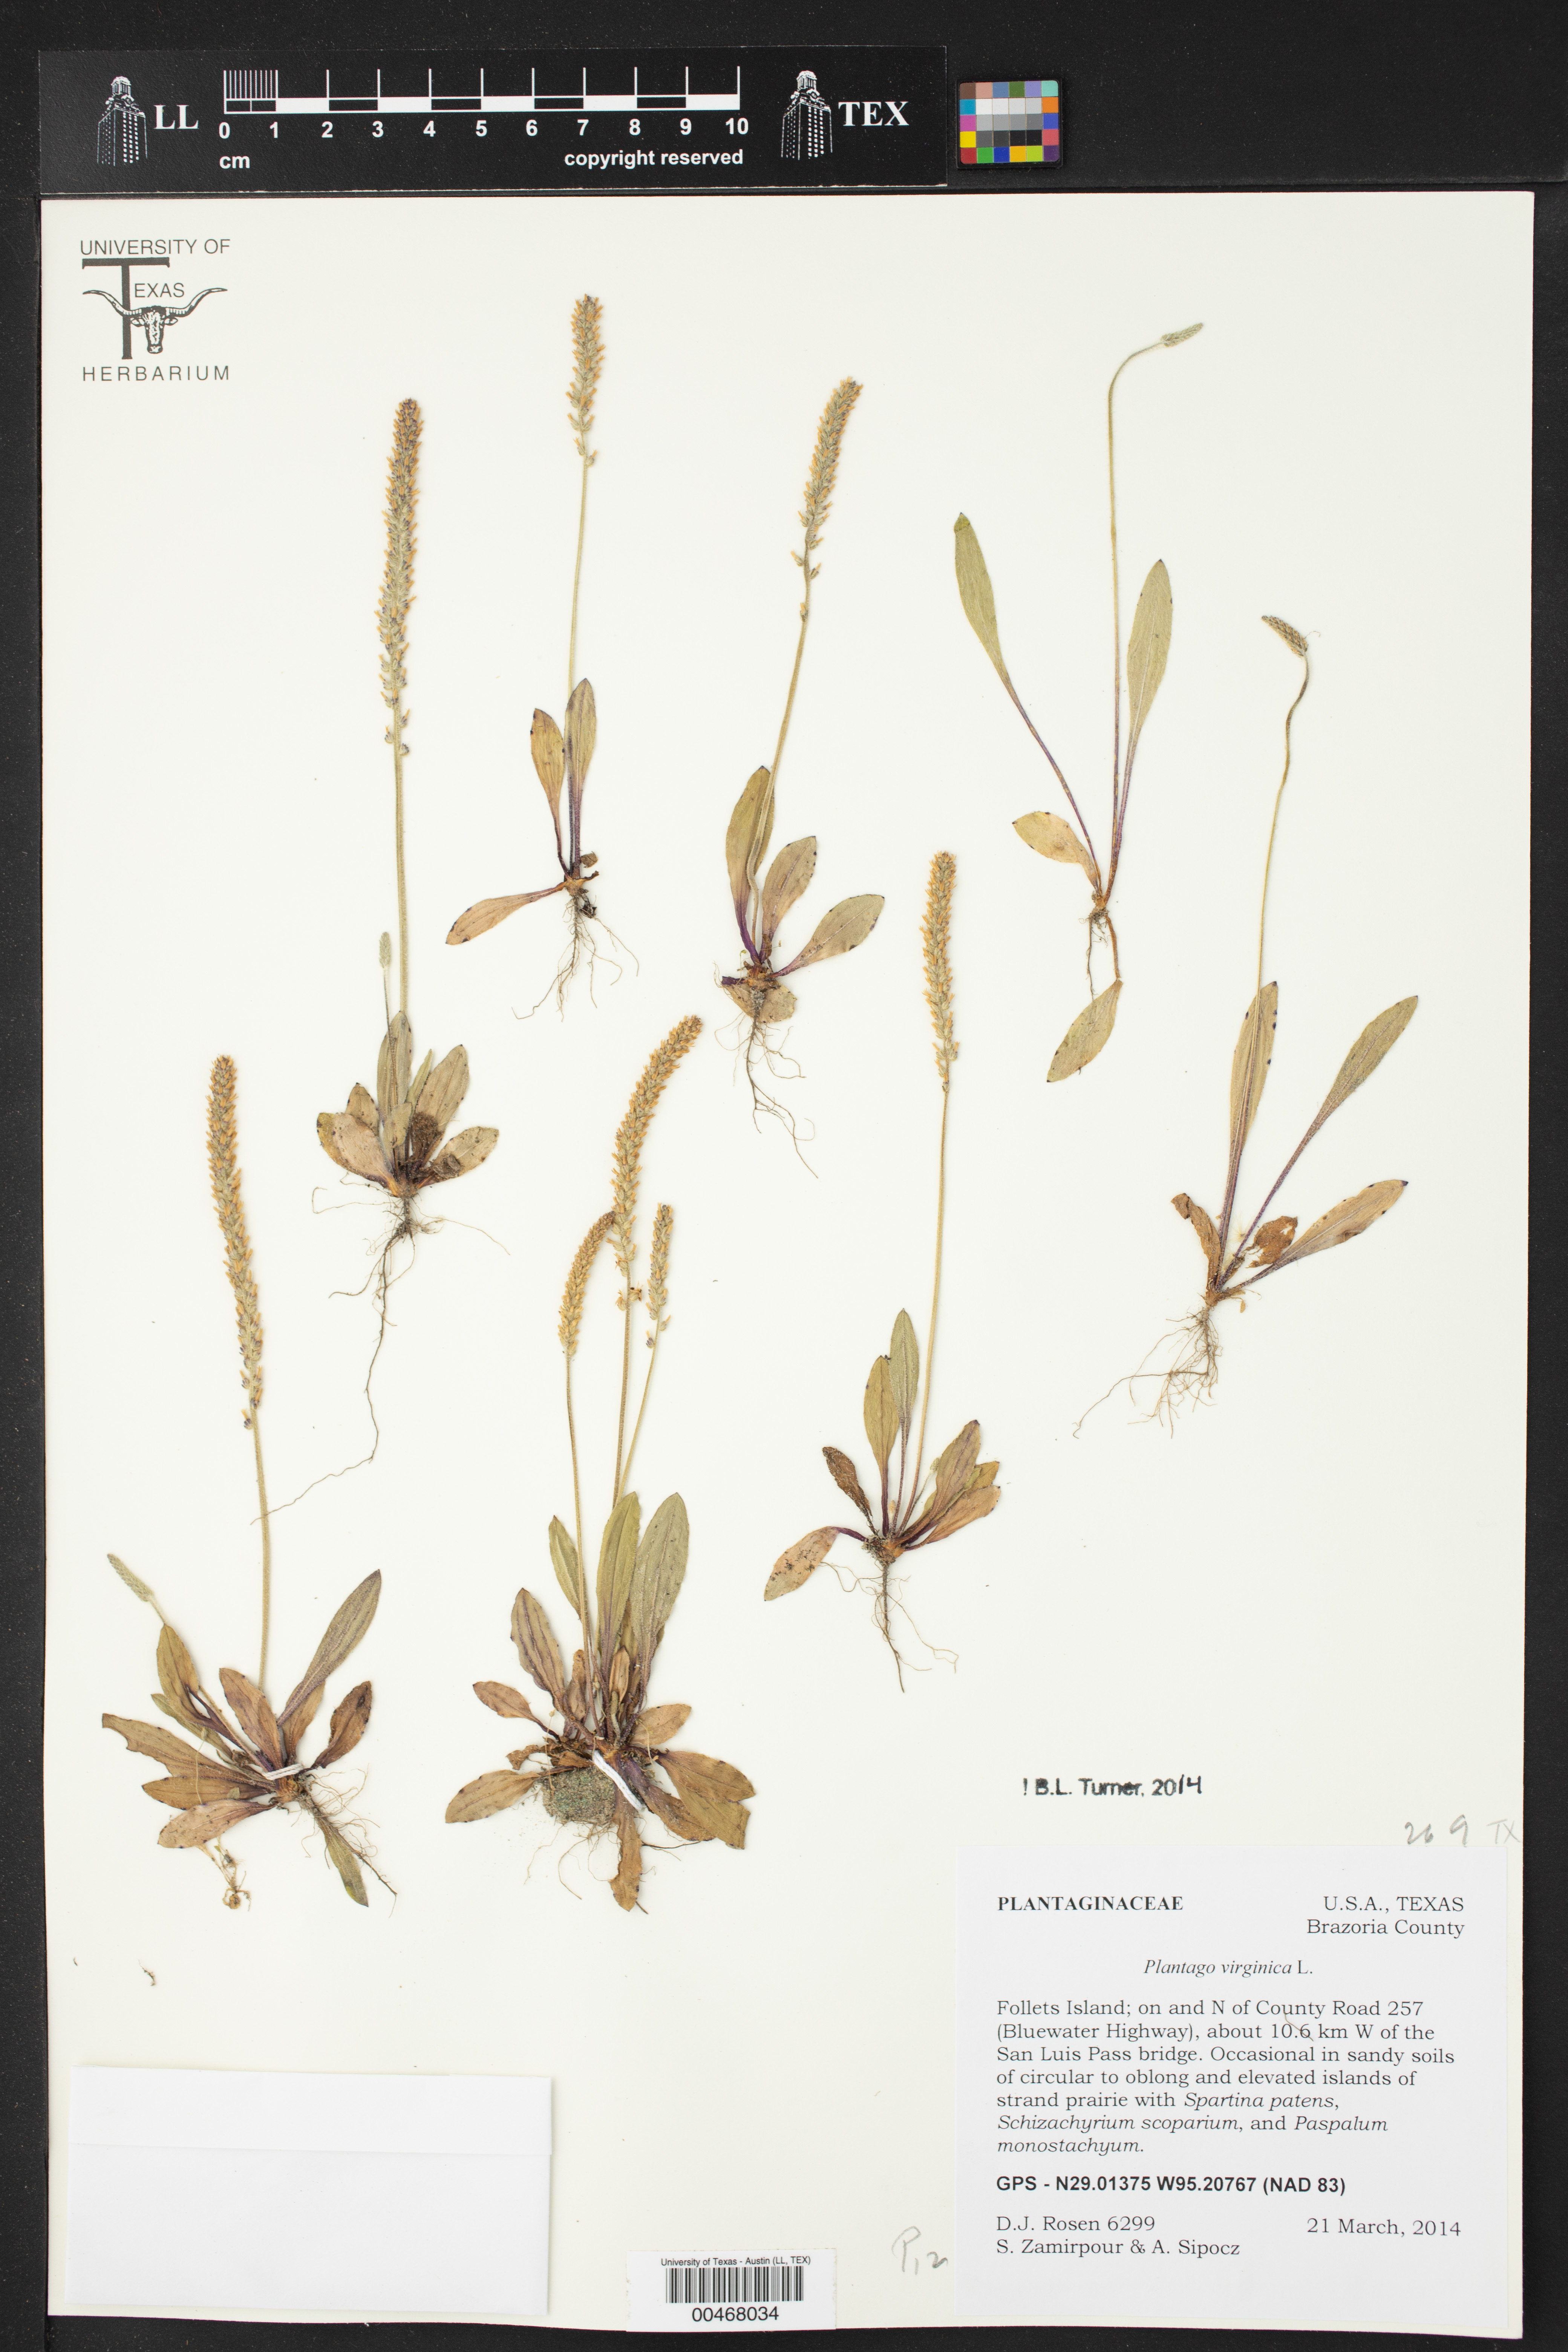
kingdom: Plantae
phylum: Tracheophyta
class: Magnoliopsida
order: Lamiales
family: Plantaginaceae
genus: Plantago
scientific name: Plantago virginica
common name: Hoary plantain
